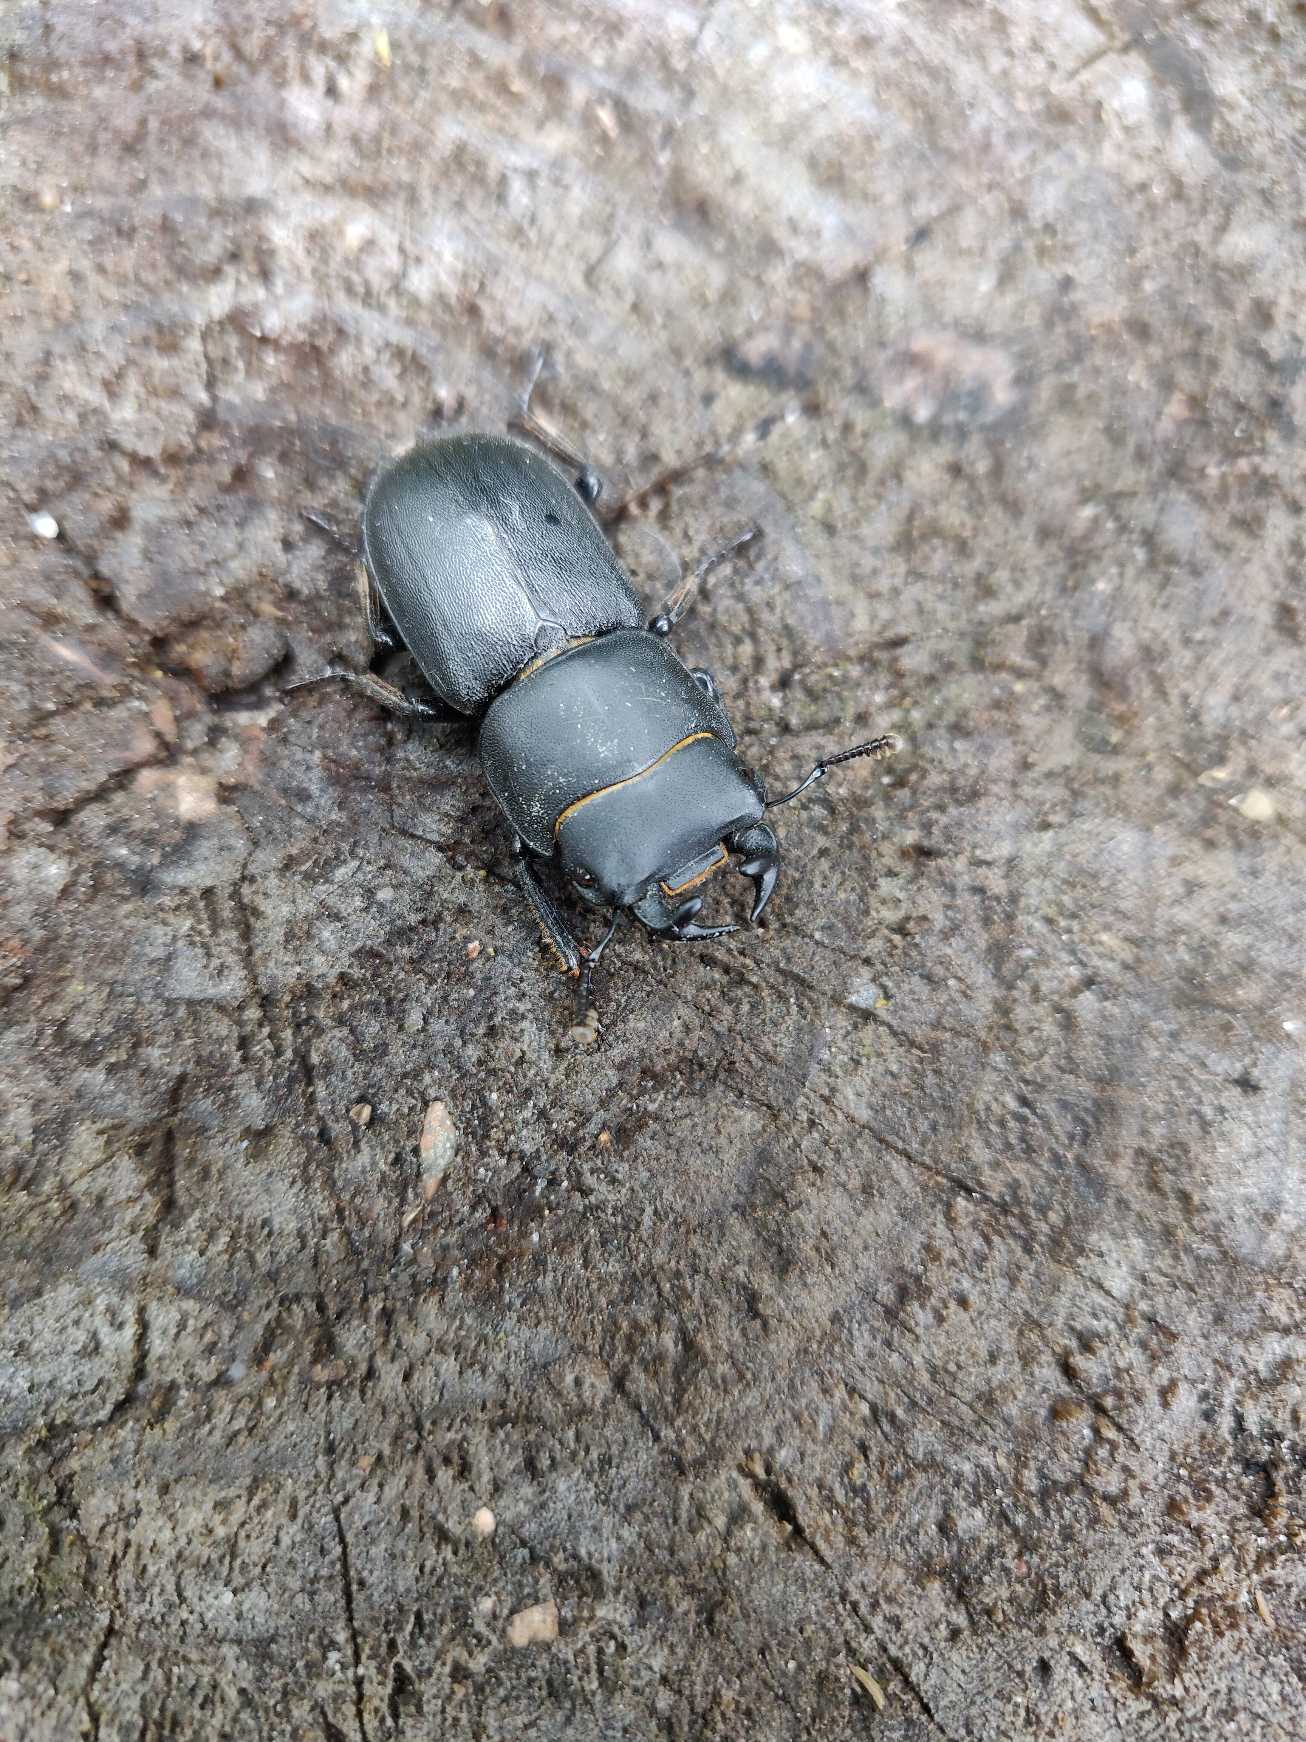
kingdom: Animalia
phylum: Arthropoda
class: Insecta
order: Coleoptera
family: Lucanidae
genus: Dorcus
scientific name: Dorcus parallelipipedus
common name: Bøghjort
